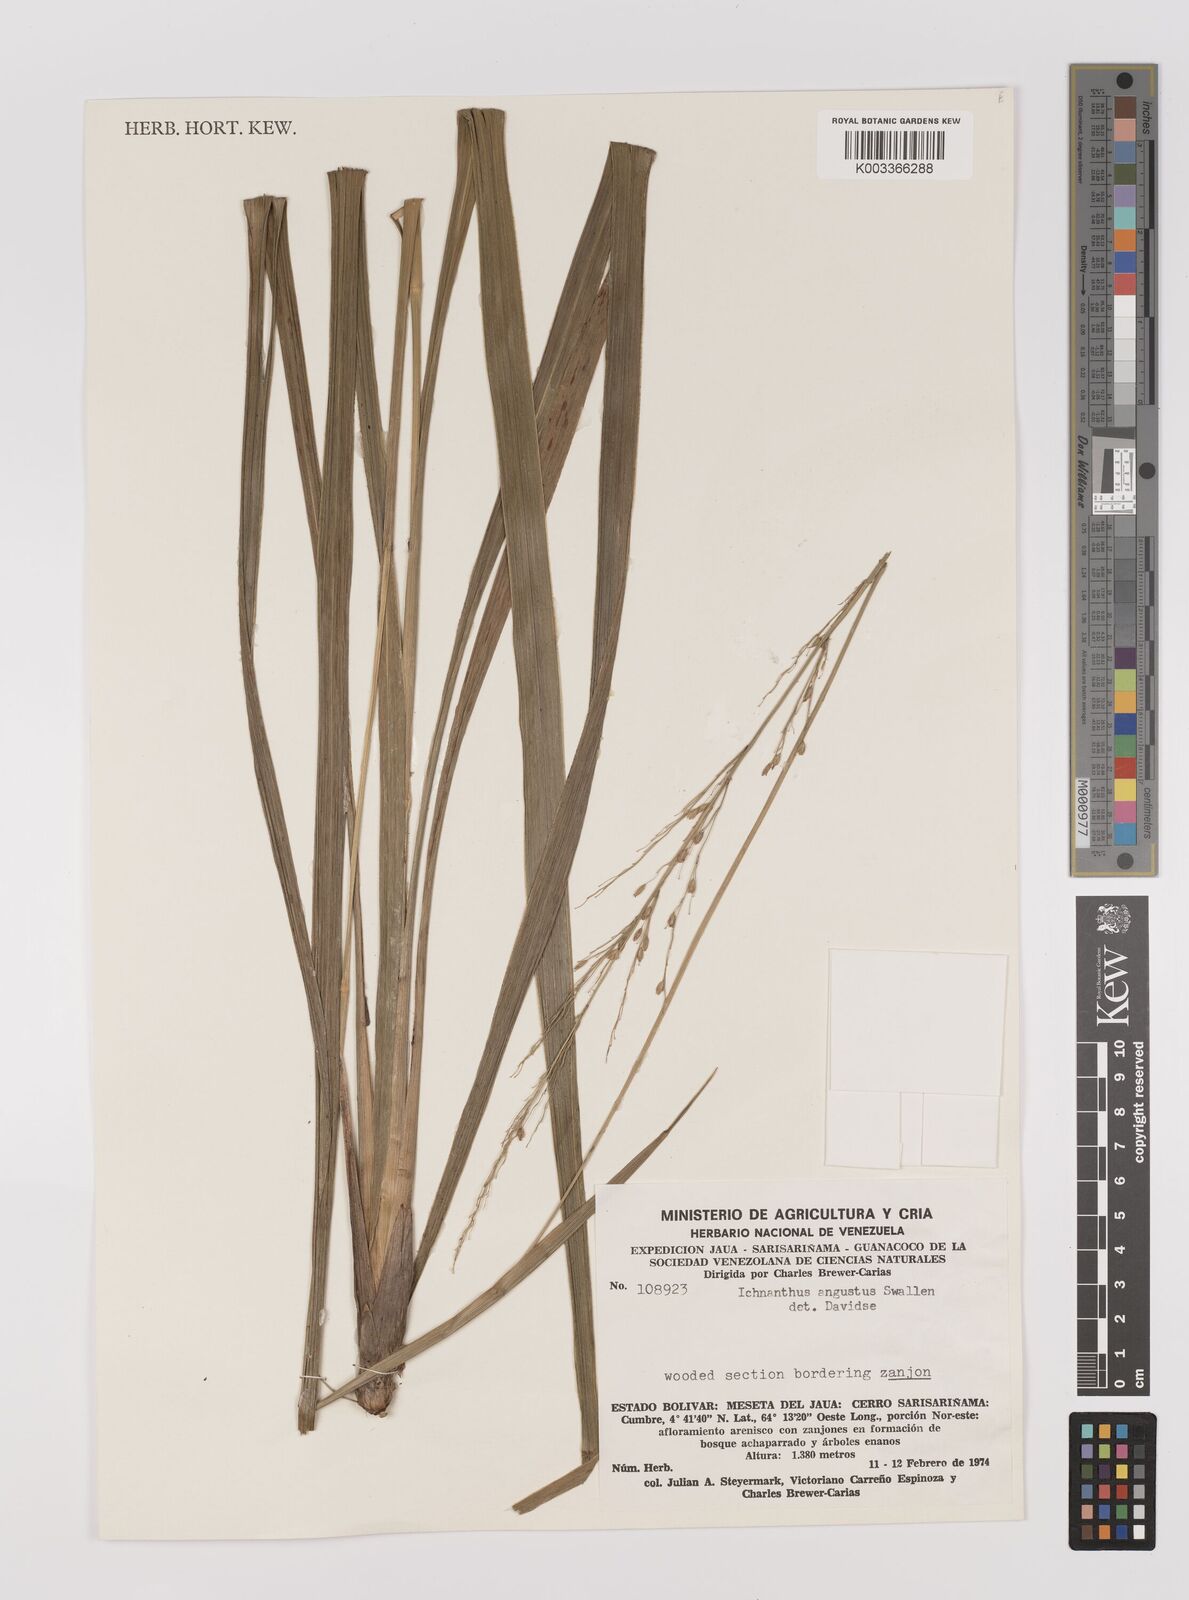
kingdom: Plantae
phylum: Tracheophyta
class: Liliopsida
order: Poales
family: Poaceae
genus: Ichnanthus
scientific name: Ichnanthus ephemeroblepharis
